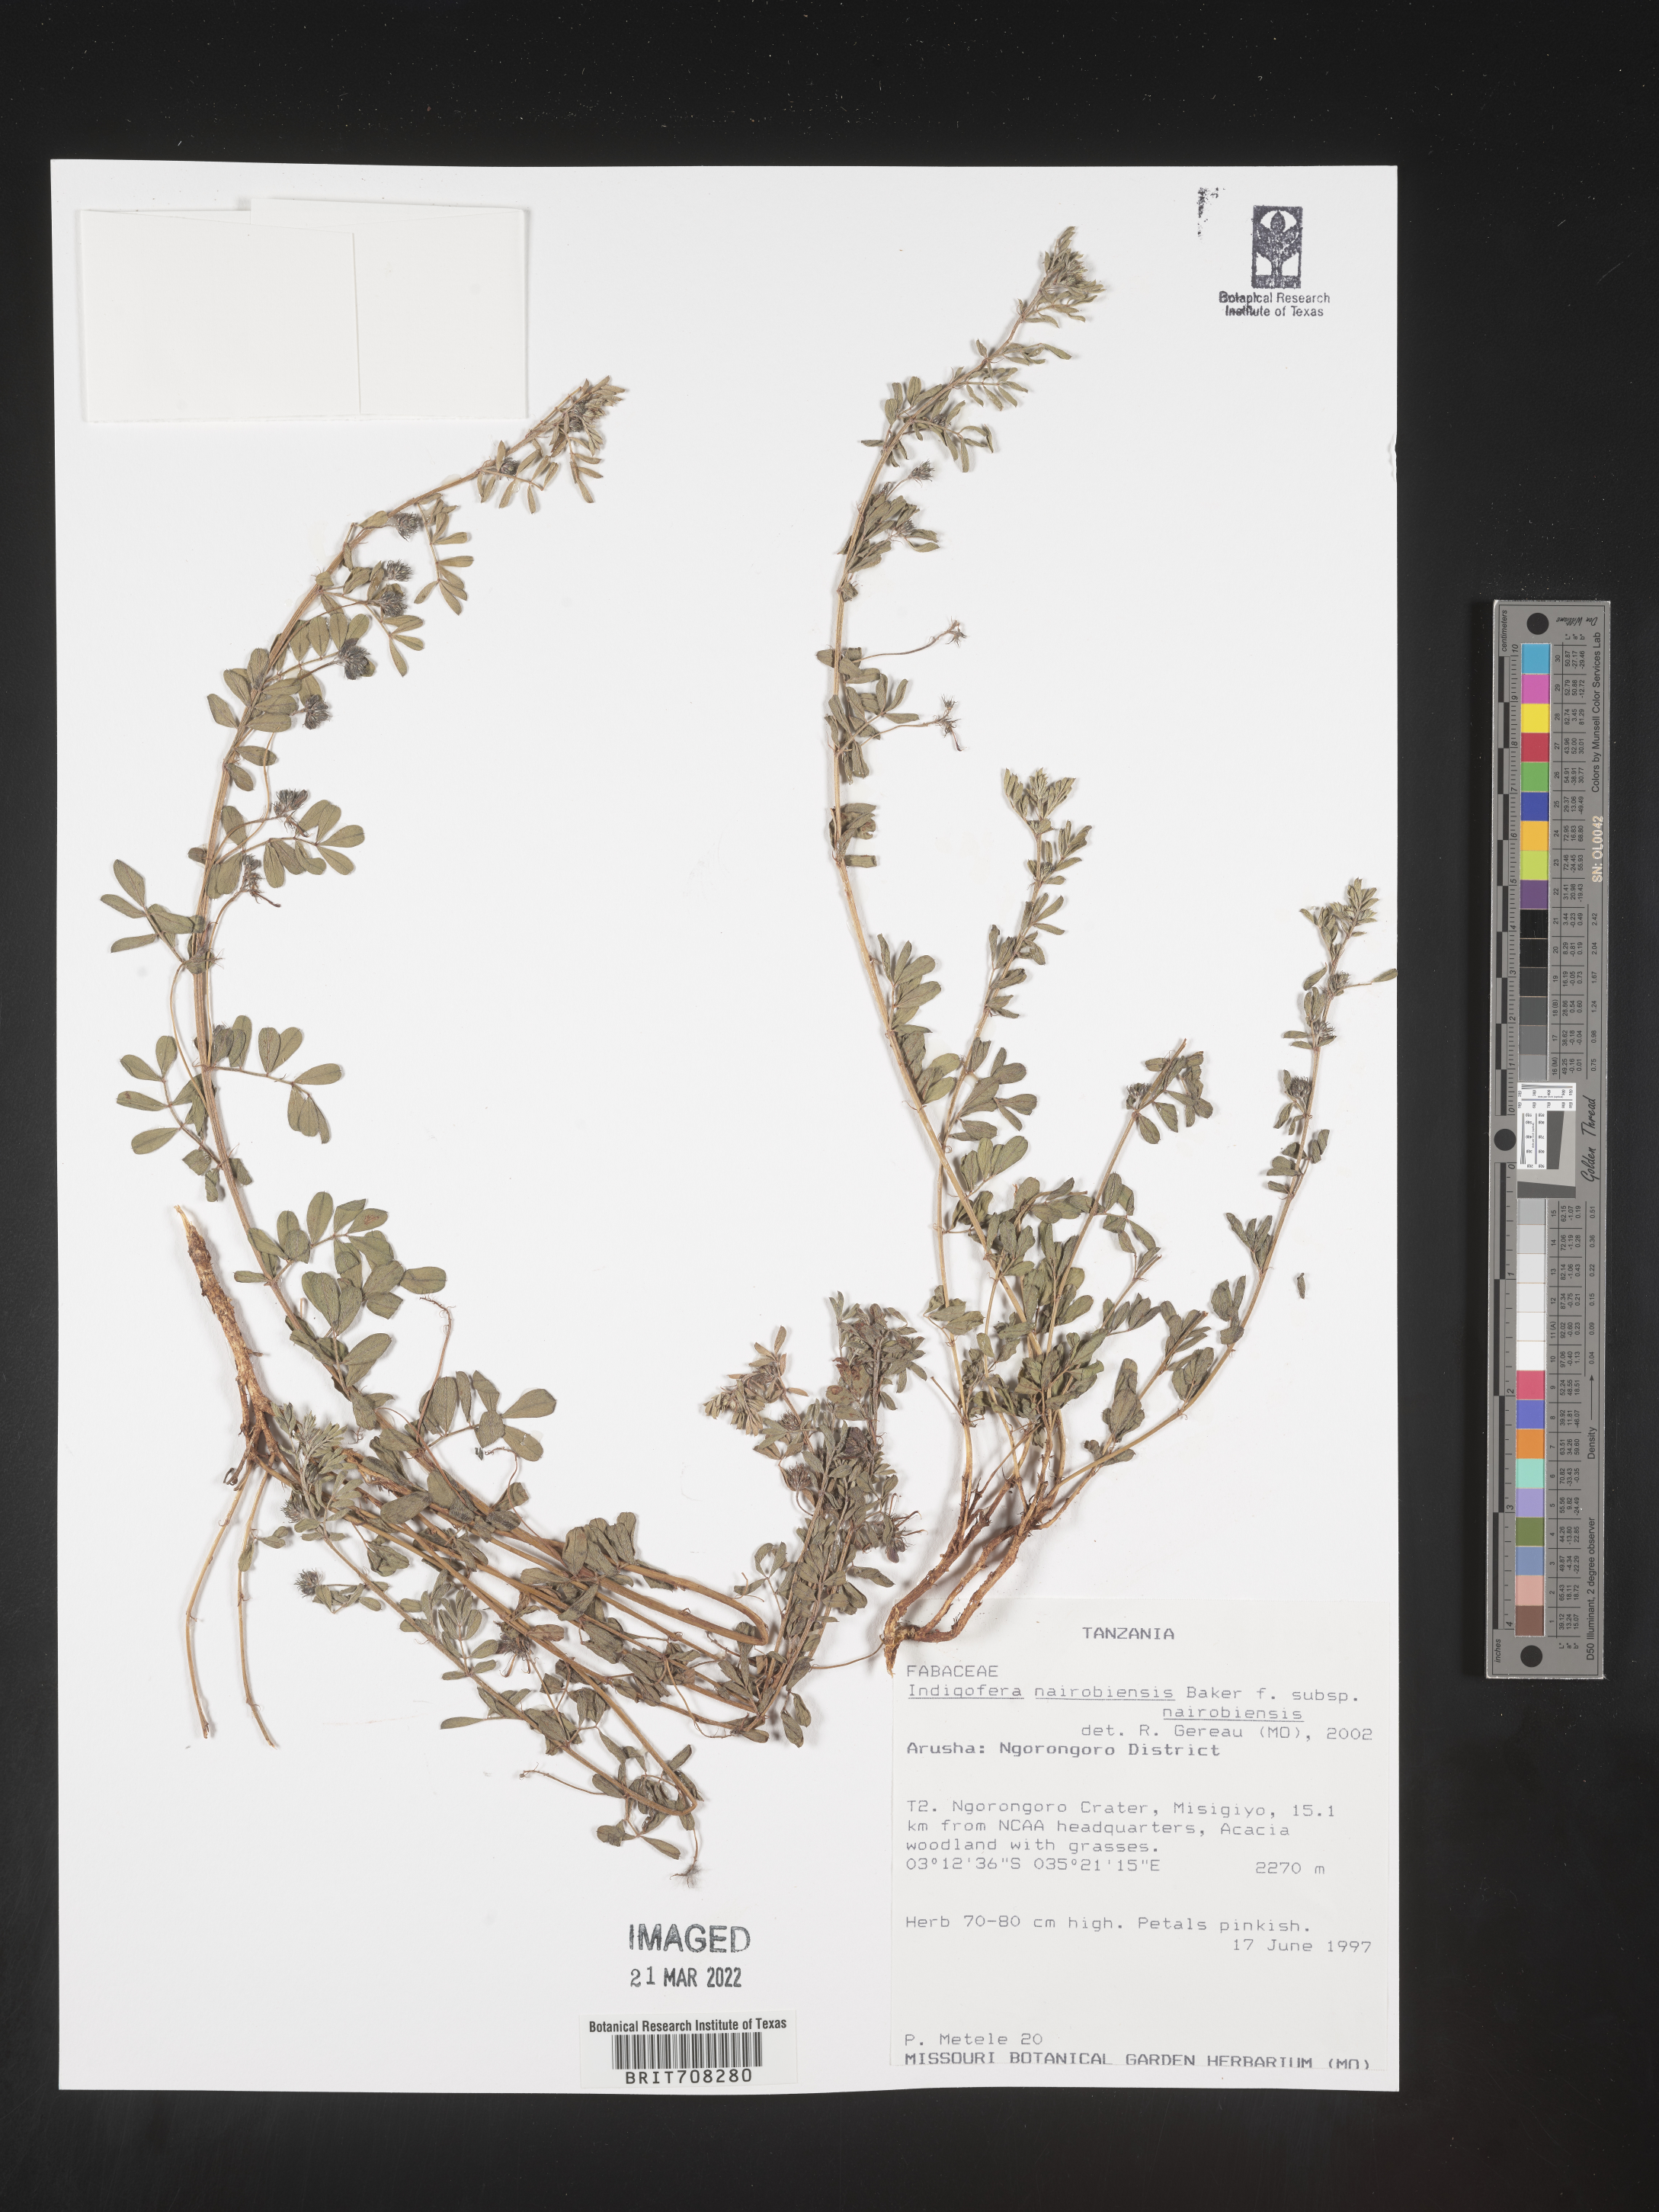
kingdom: Plantae
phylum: Tracheophyta
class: Magnoliopsida
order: Fabales
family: Fabaceae
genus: Indigofera
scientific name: Indigofera
